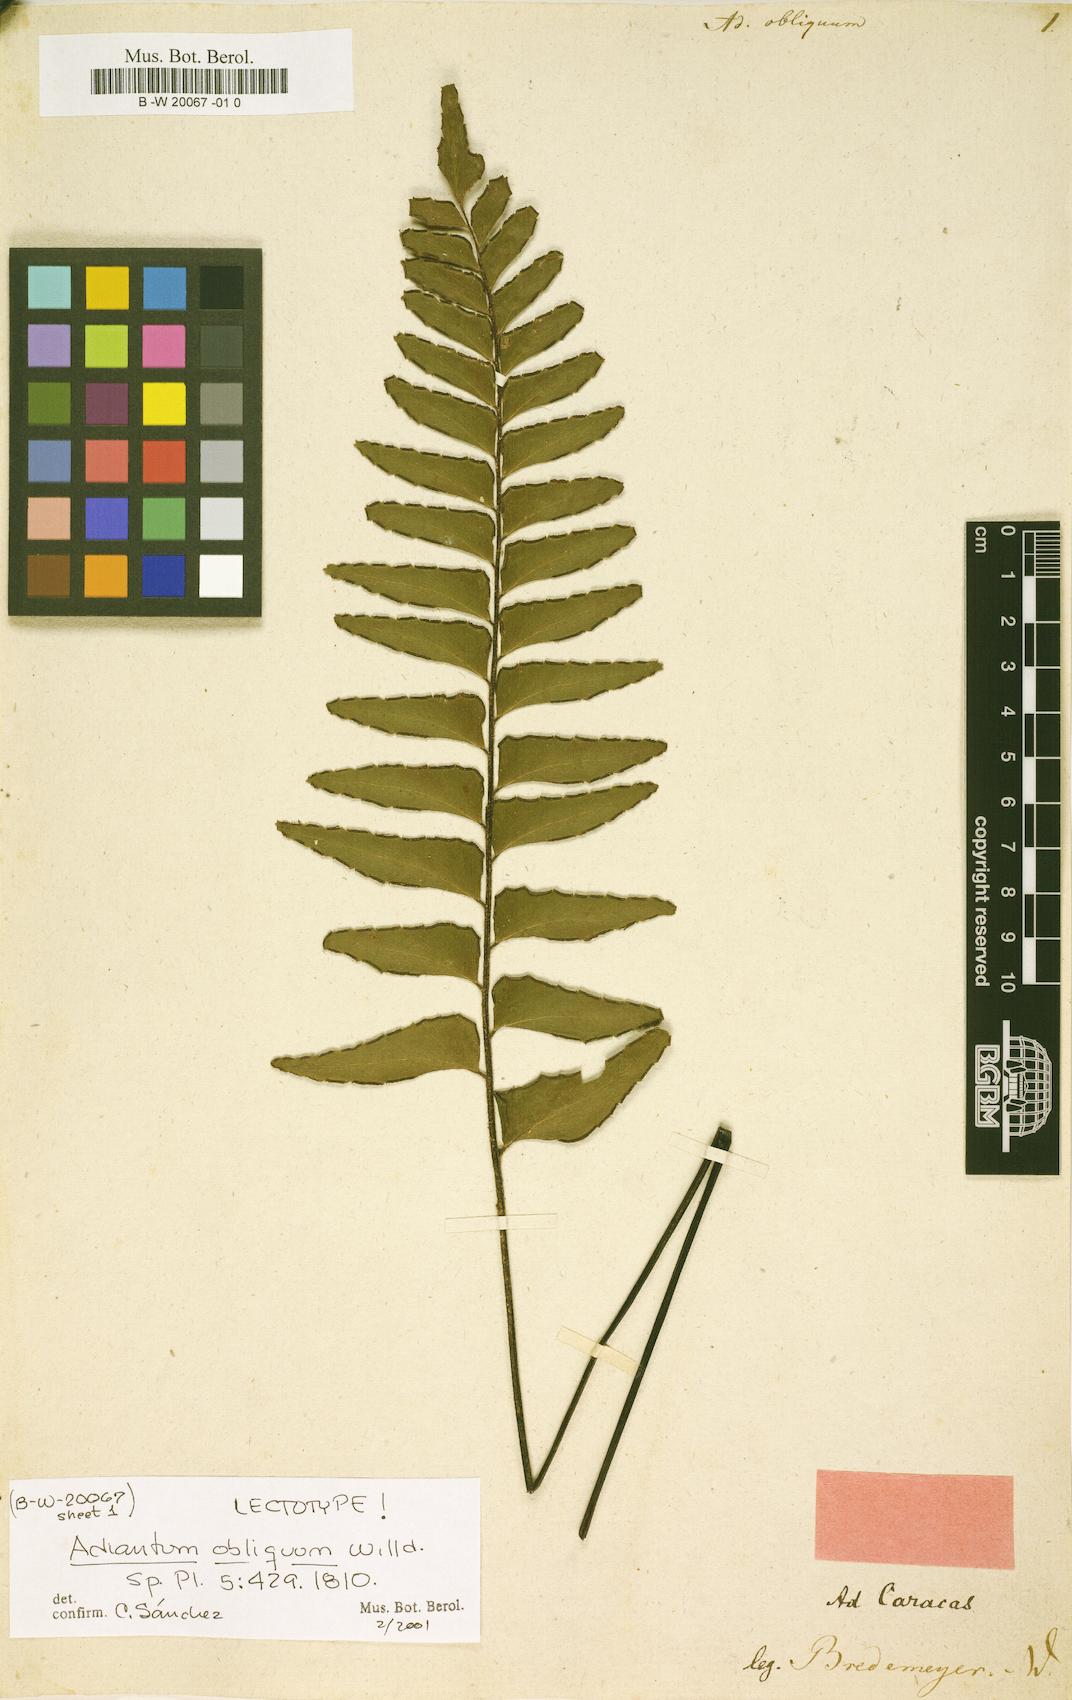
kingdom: Plantae
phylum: Tracheophyta
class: Polypodiopsida
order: Polypodiales
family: Pteridaceae
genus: Adiantum
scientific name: Adiantum obliquum
